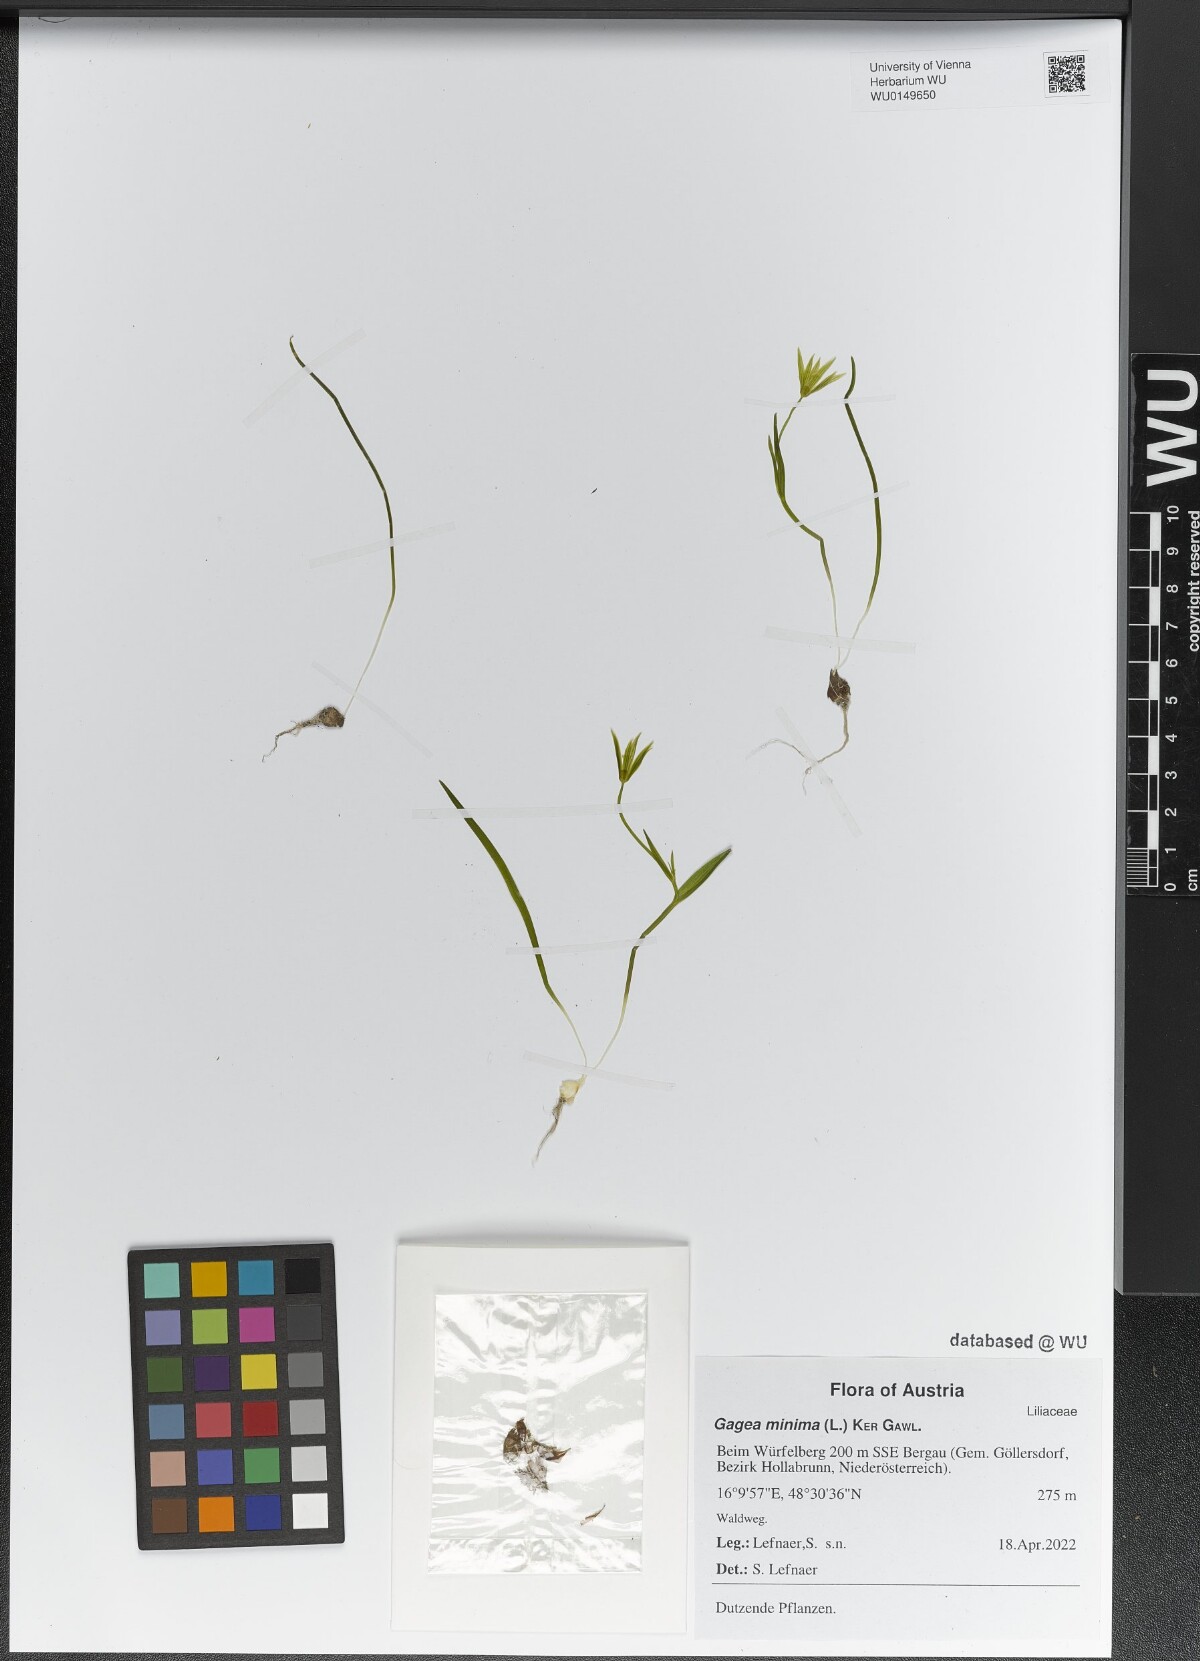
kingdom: Plantae
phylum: Tracheophyta
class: Liliopsida
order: Liliales
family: Liliaceae
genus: Gagea
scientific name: Gagea minima
